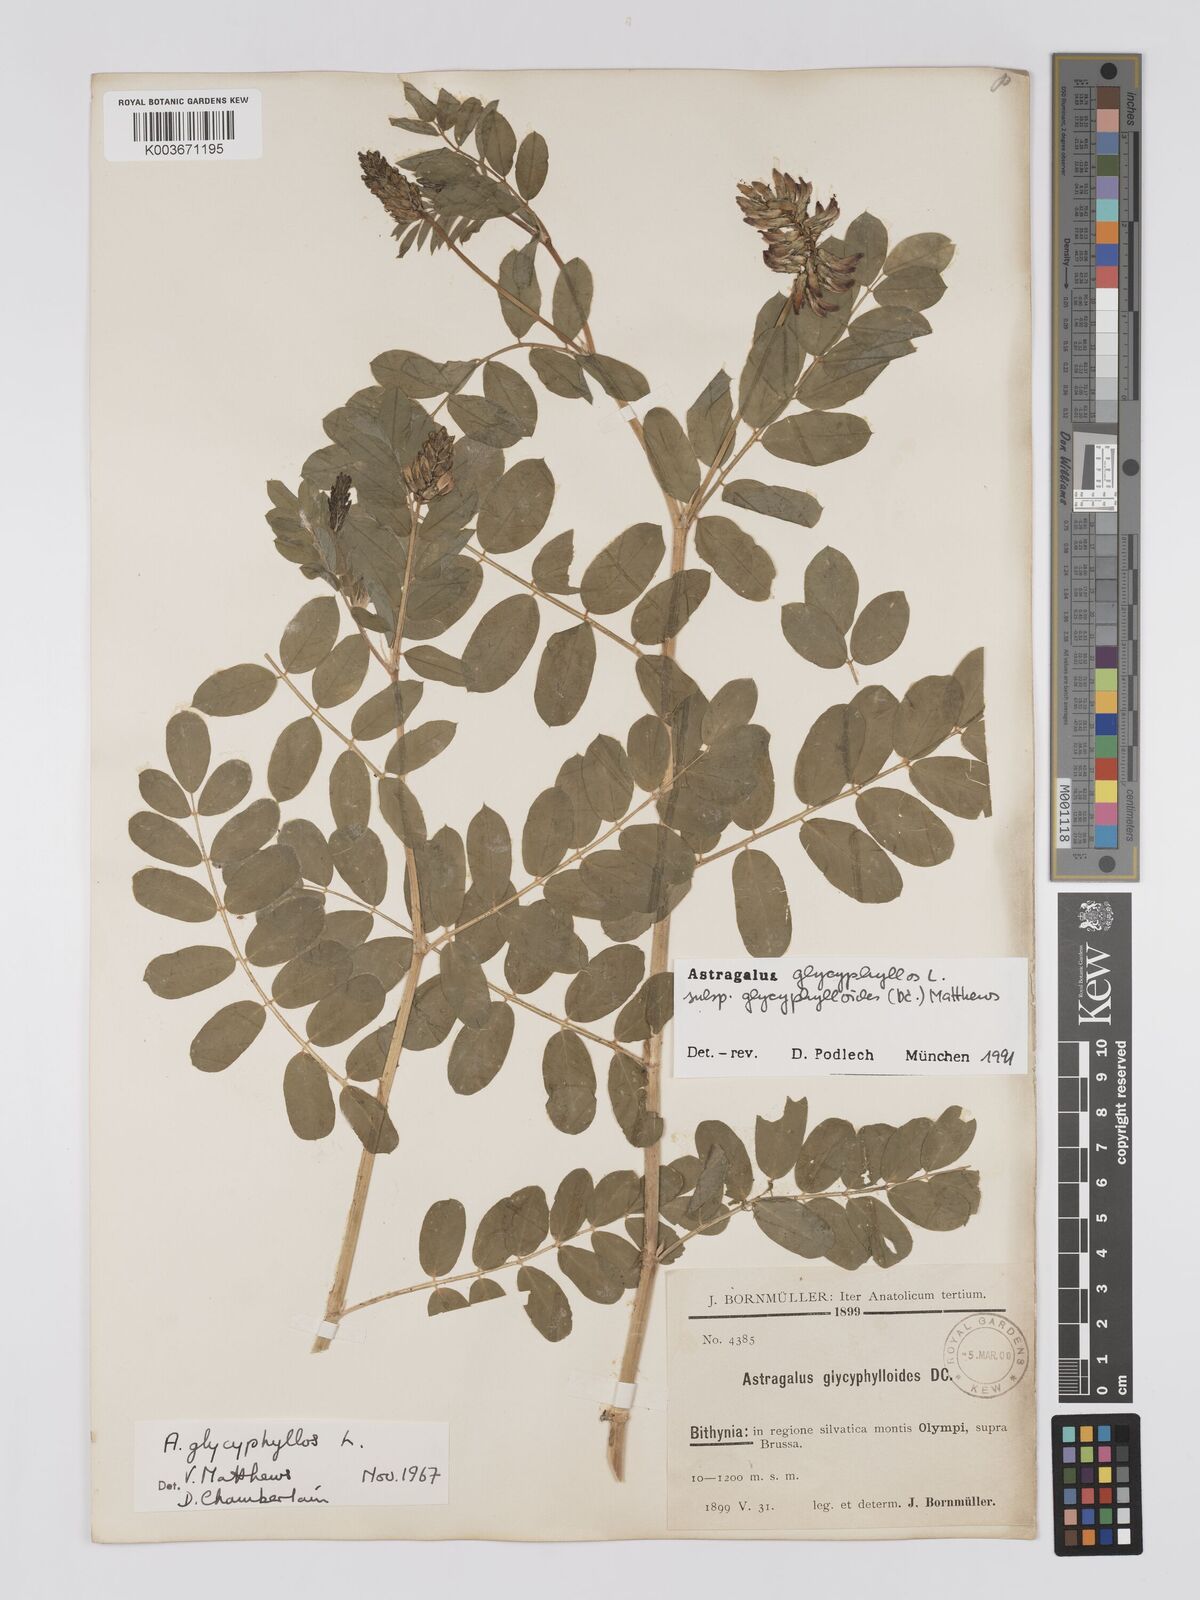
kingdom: Plantae
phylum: Tracheophyta
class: Magnoliopsida
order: Fabales
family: Fabaceae
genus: Astragalus
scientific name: Astragalus glycyphylloides
